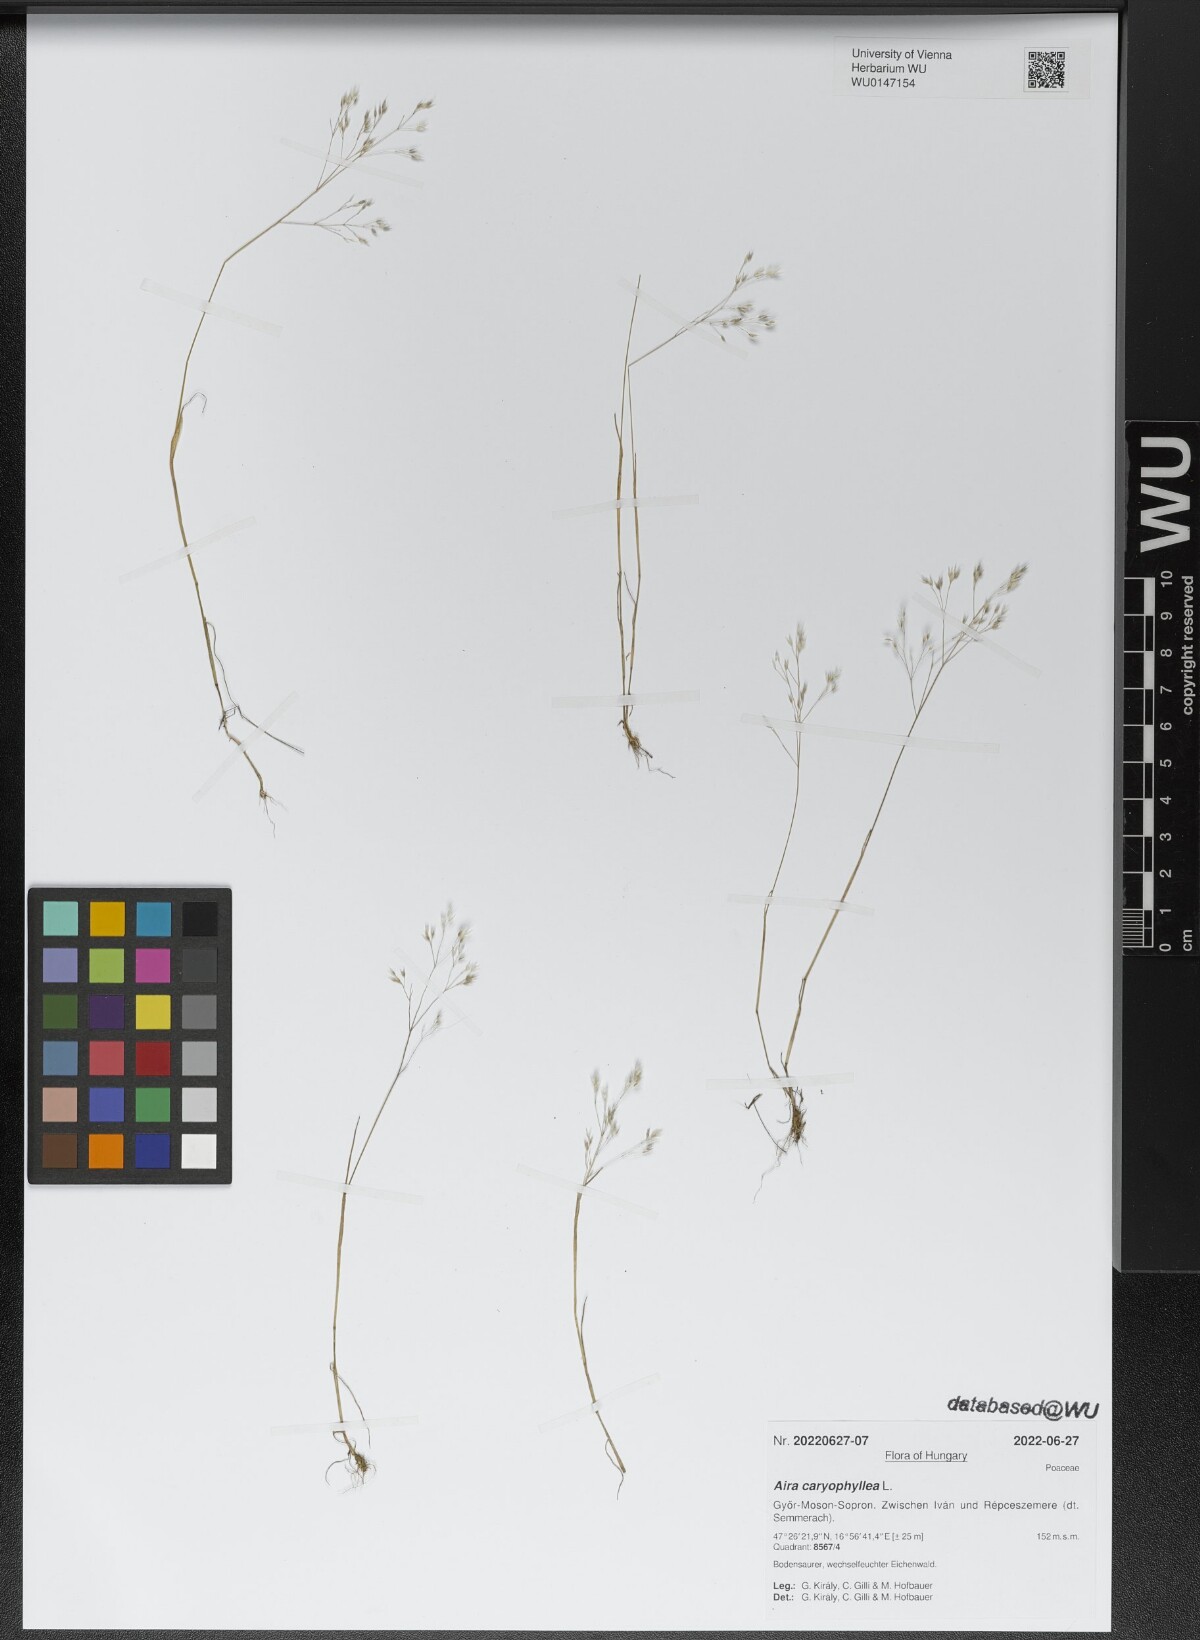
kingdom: Plantae
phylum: Tracheophyta
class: Liliopsida
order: Poales
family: Poaceae
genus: Aira
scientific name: Aira caryophyllea
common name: Silver hairgrass
